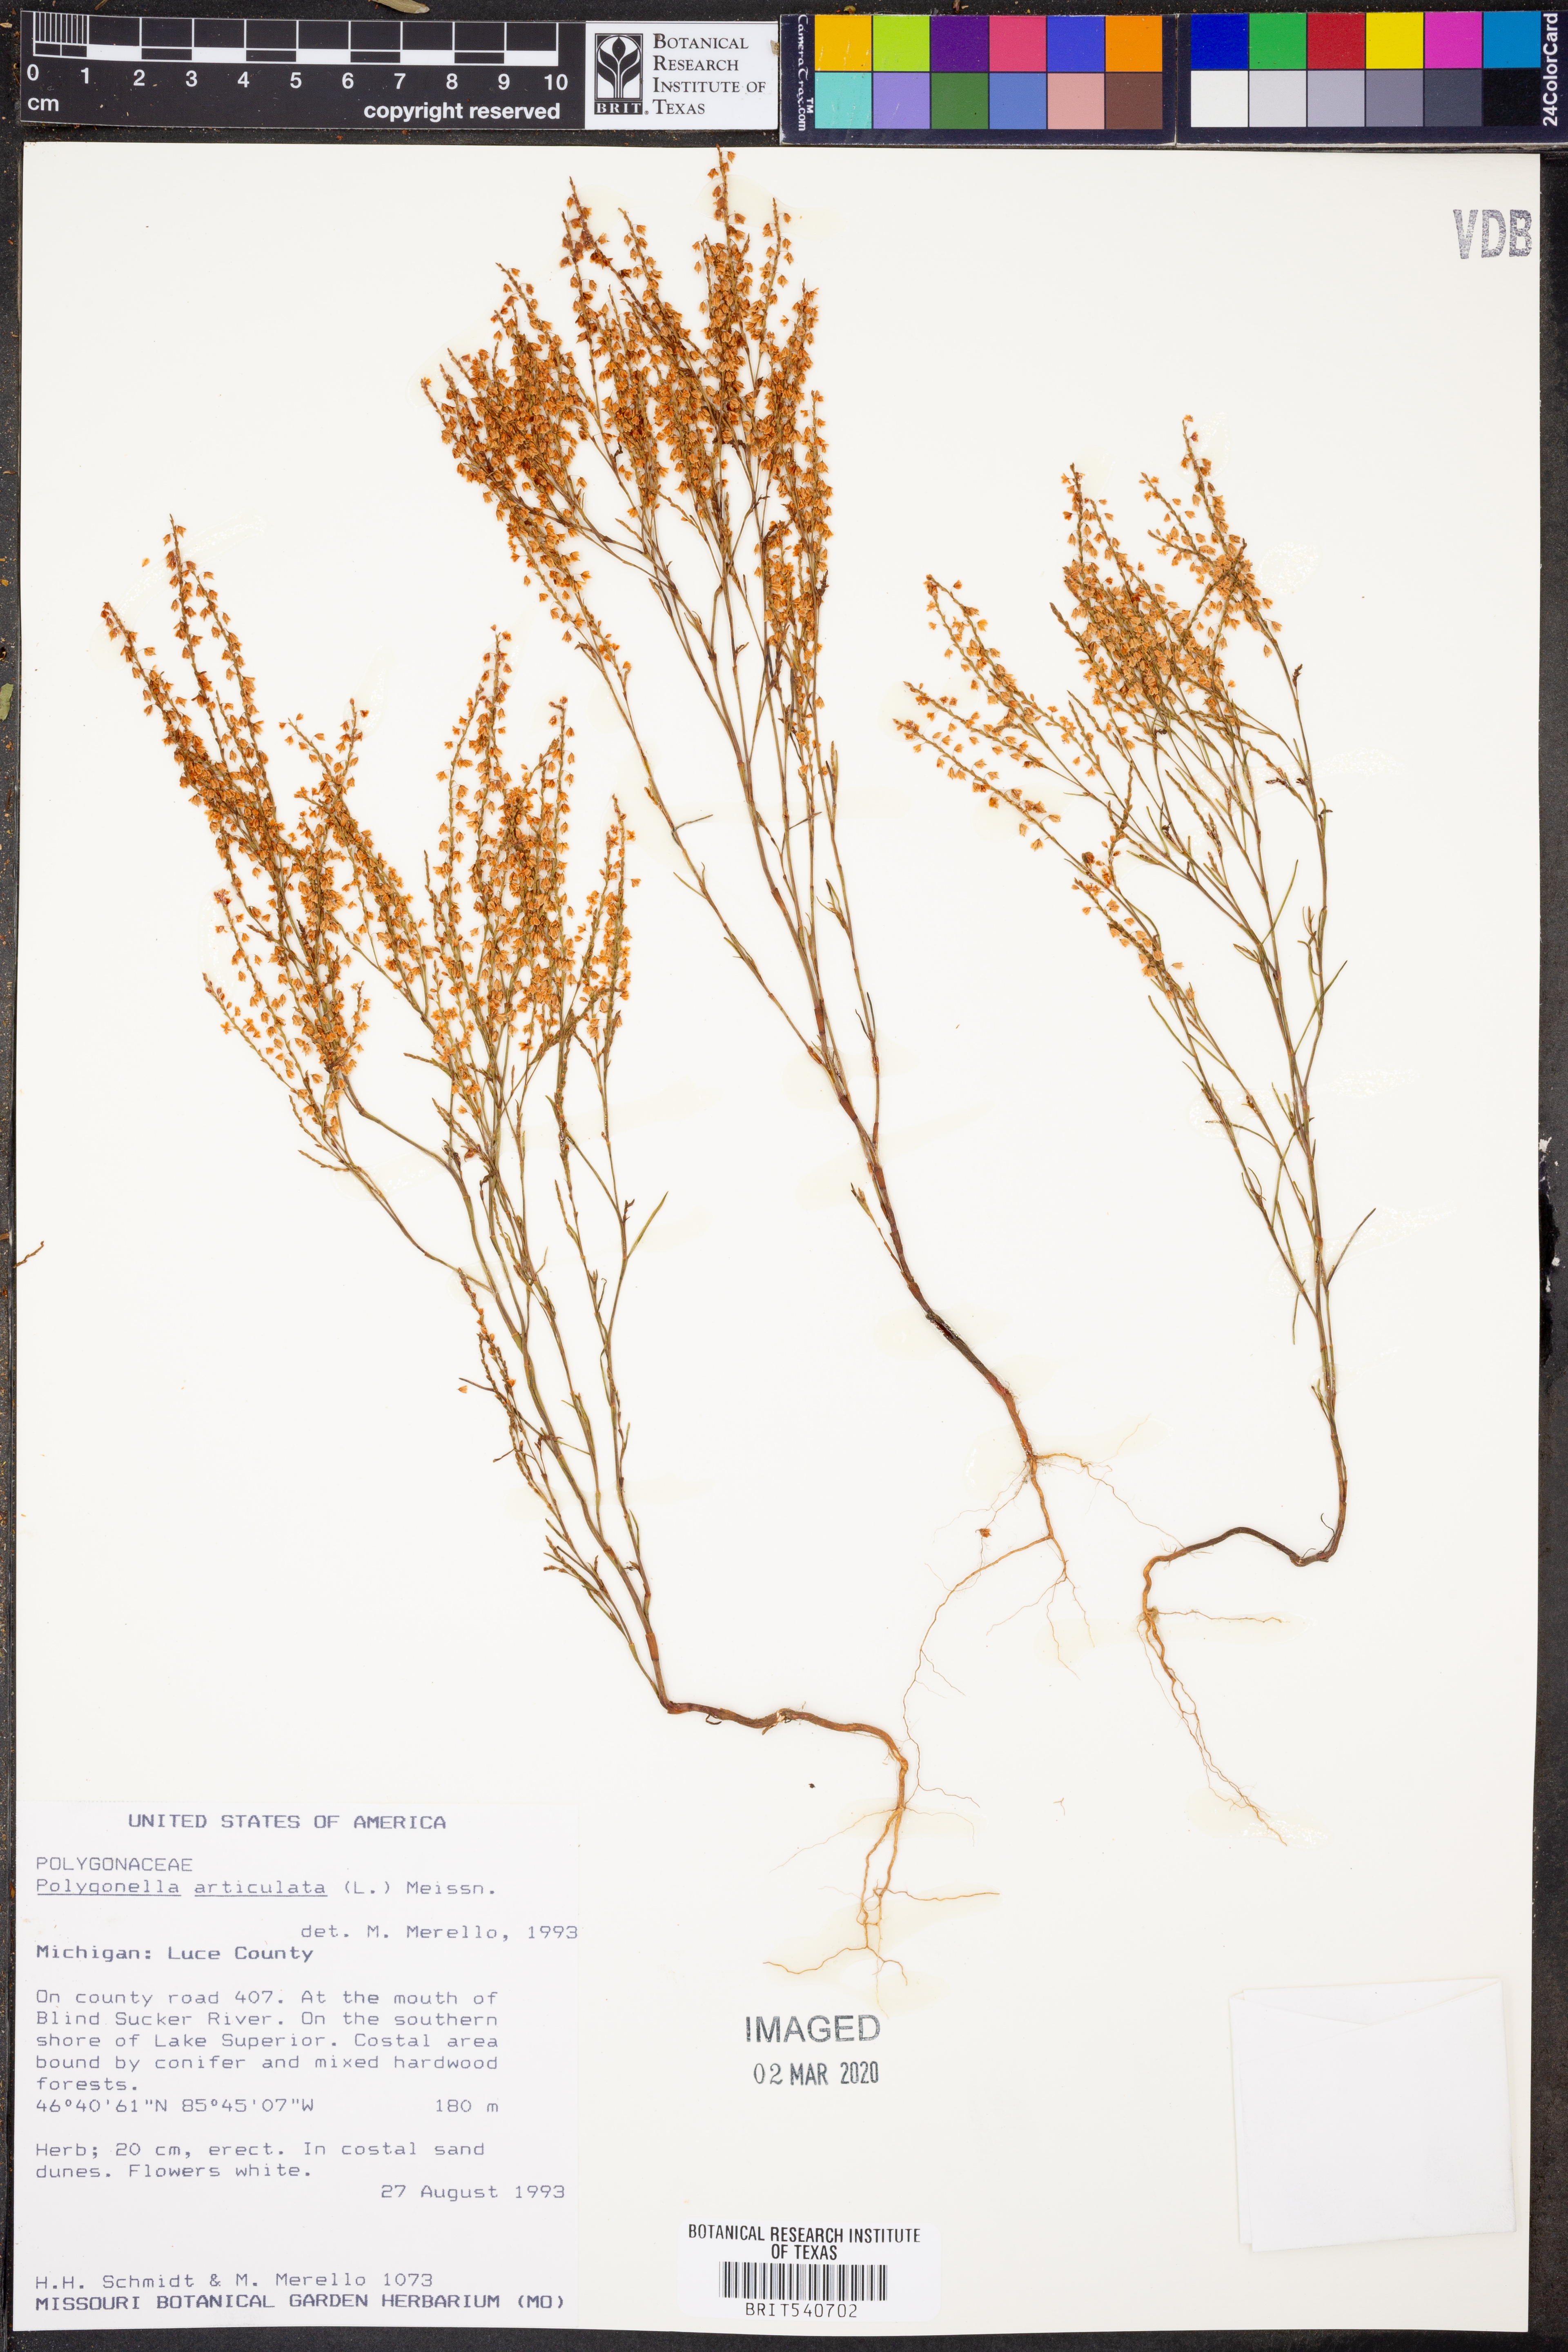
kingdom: Plantae
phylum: Tracheophyta
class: Magnoliopsida
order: Caryophyllales
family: Polygonaceae
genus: Polygonella
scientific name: Polygonella articulata
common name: Coastal jointweed
